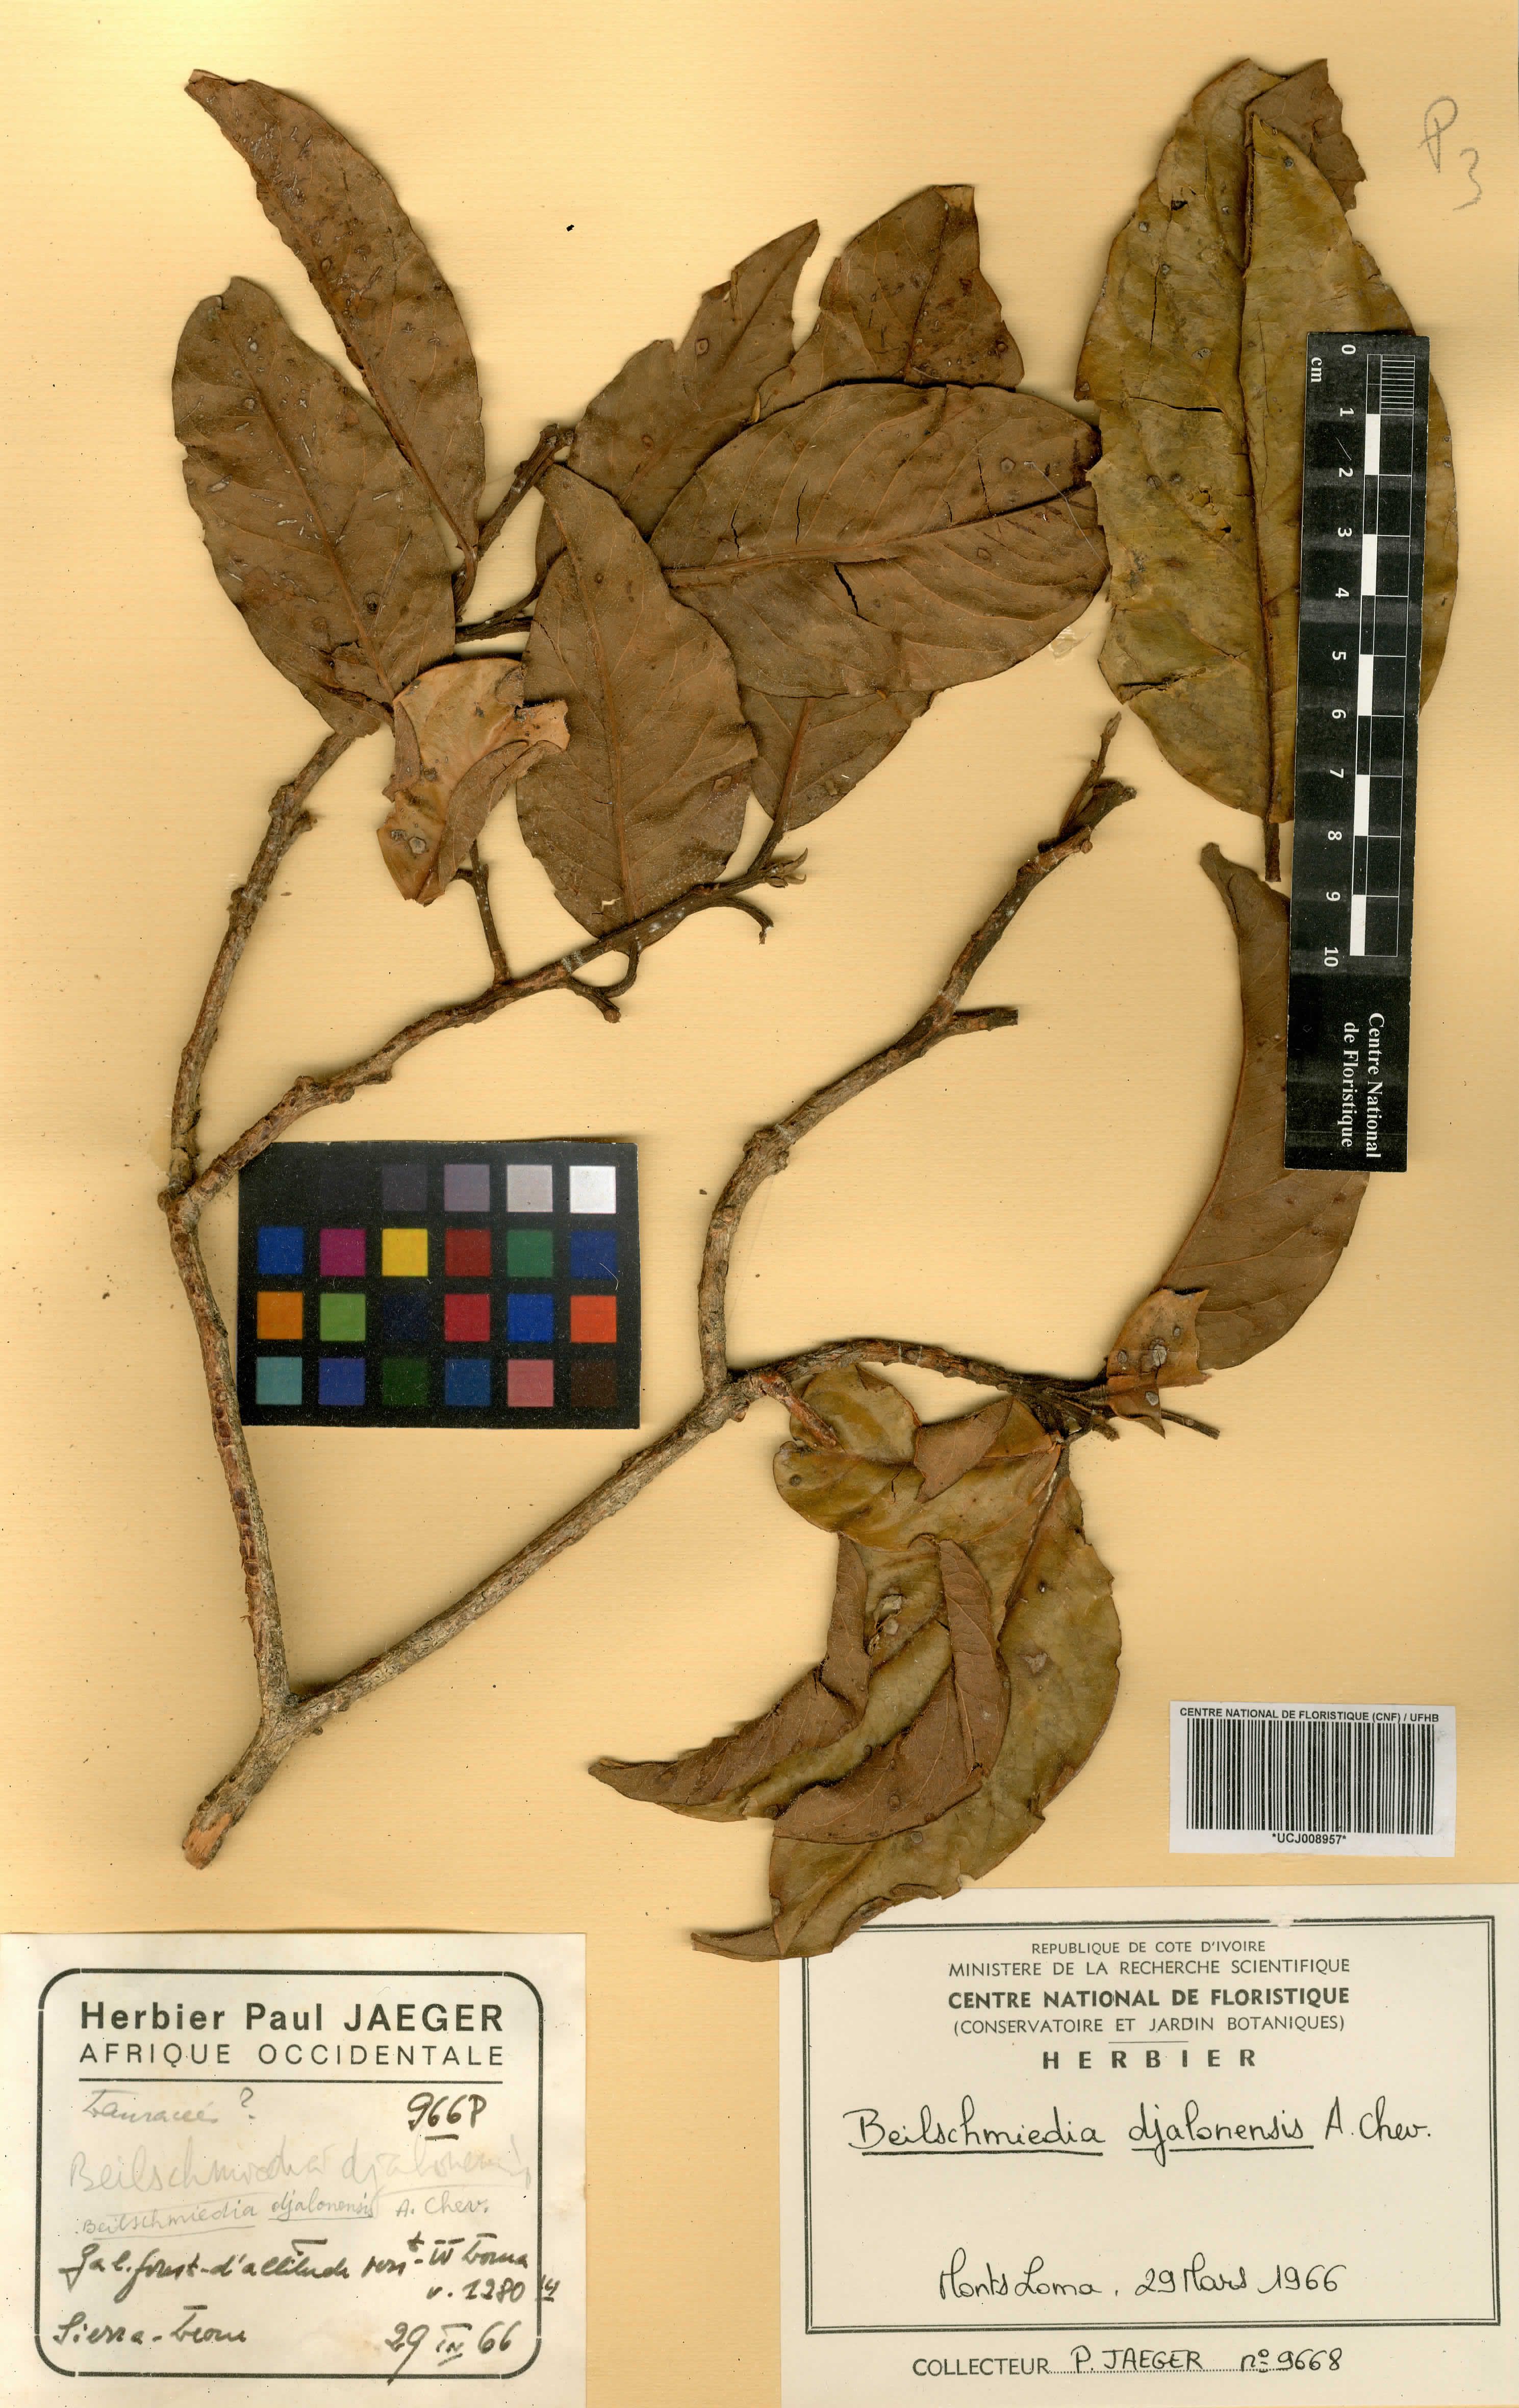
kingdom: Plantae
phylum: Tracheophyta
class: Magnoliopsida
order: Laurales
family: Lauraceae
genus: Beilschmiedia
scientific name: Beilschmiedia djalonensis
